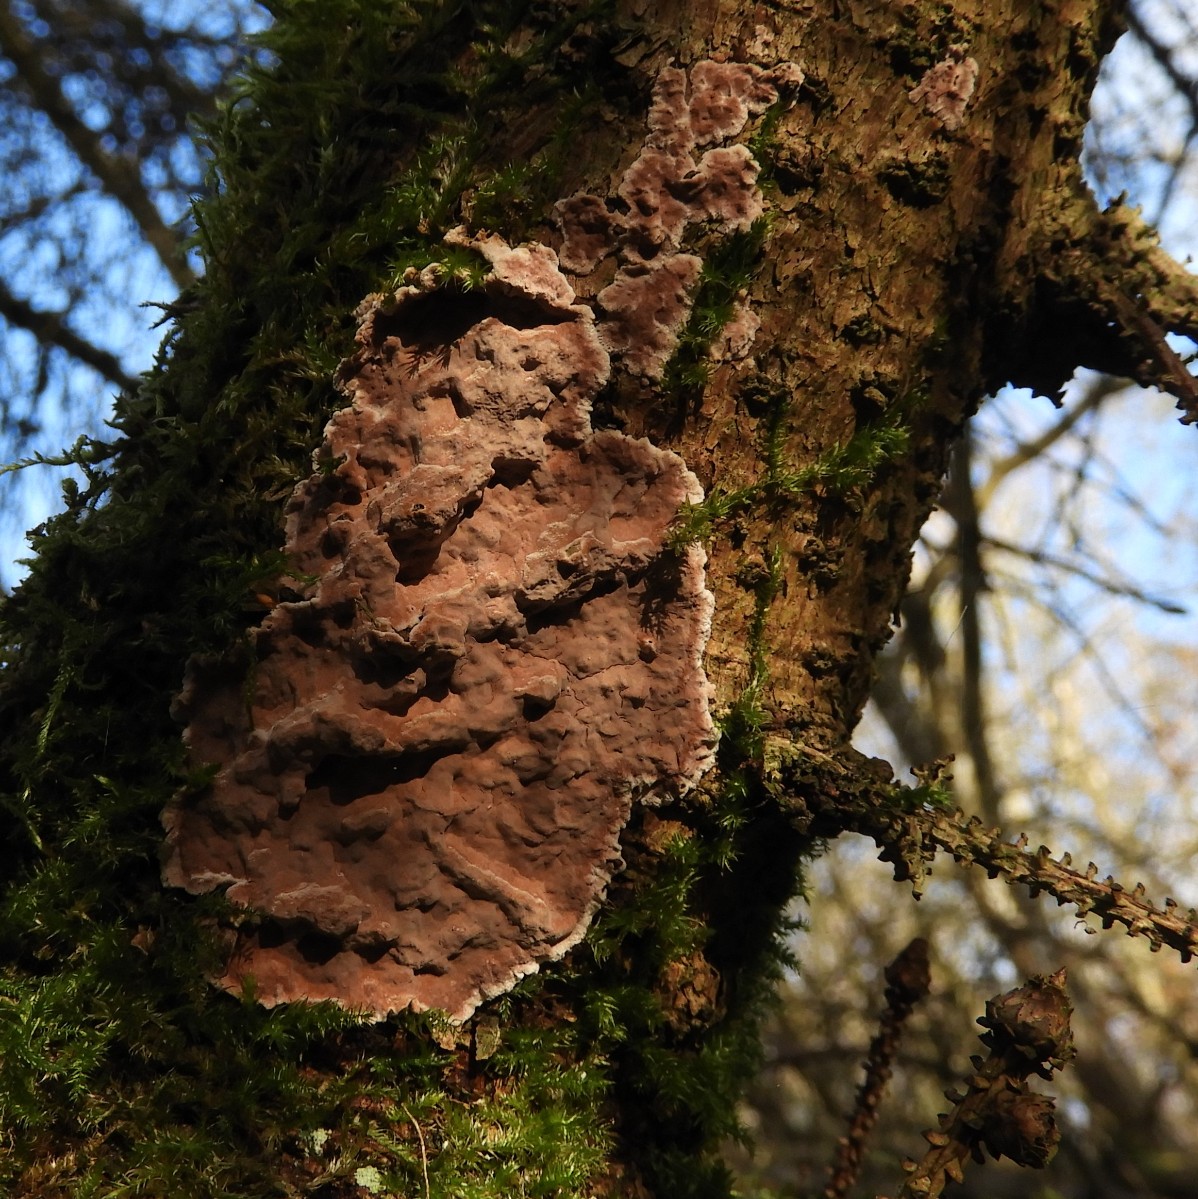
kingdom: Fungi
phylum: Basidiomycota
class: Agaricomycetes
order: Russulales
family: Echinodontiaceae
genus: Amylostereum
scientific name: Amylostereum chailletii
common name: gran-lædersvamp
